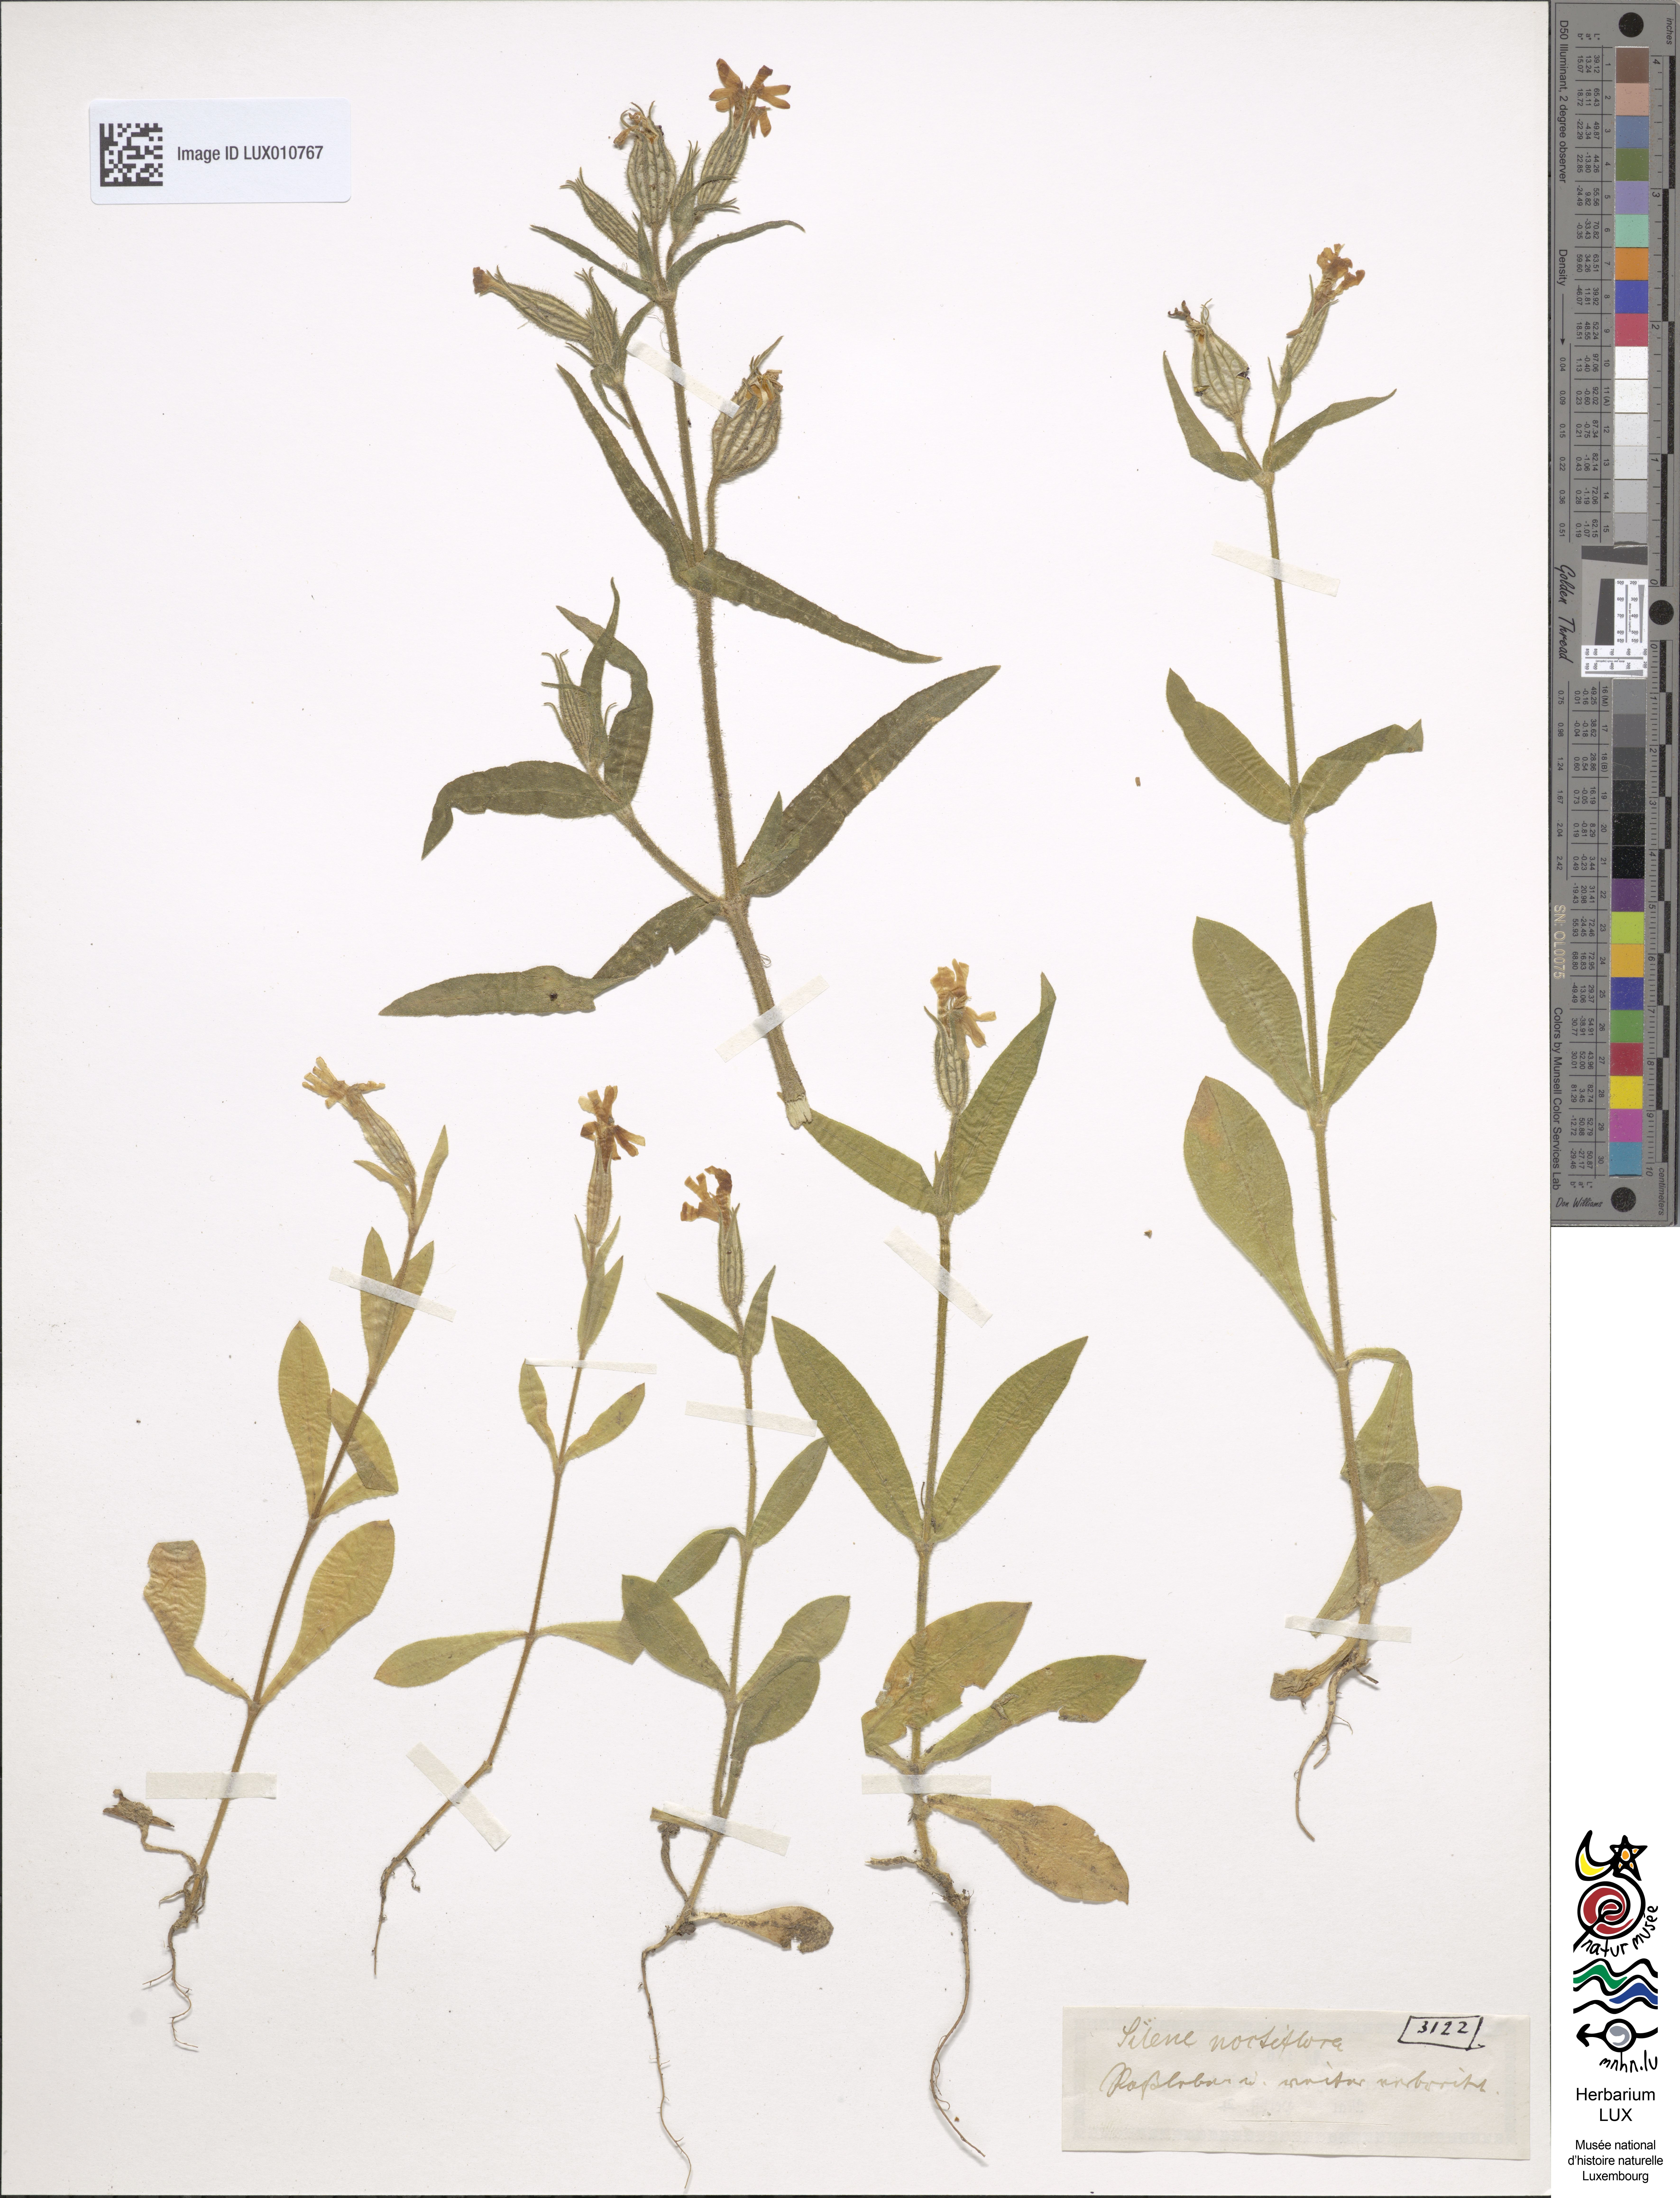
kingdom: Plantae
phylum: Tracheophyta
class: Magnoliopsida
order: Caryophyllales
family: Caryophyllaceae
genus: Silene
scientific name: Silene noctiflora
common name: Night-flowering catchfly
